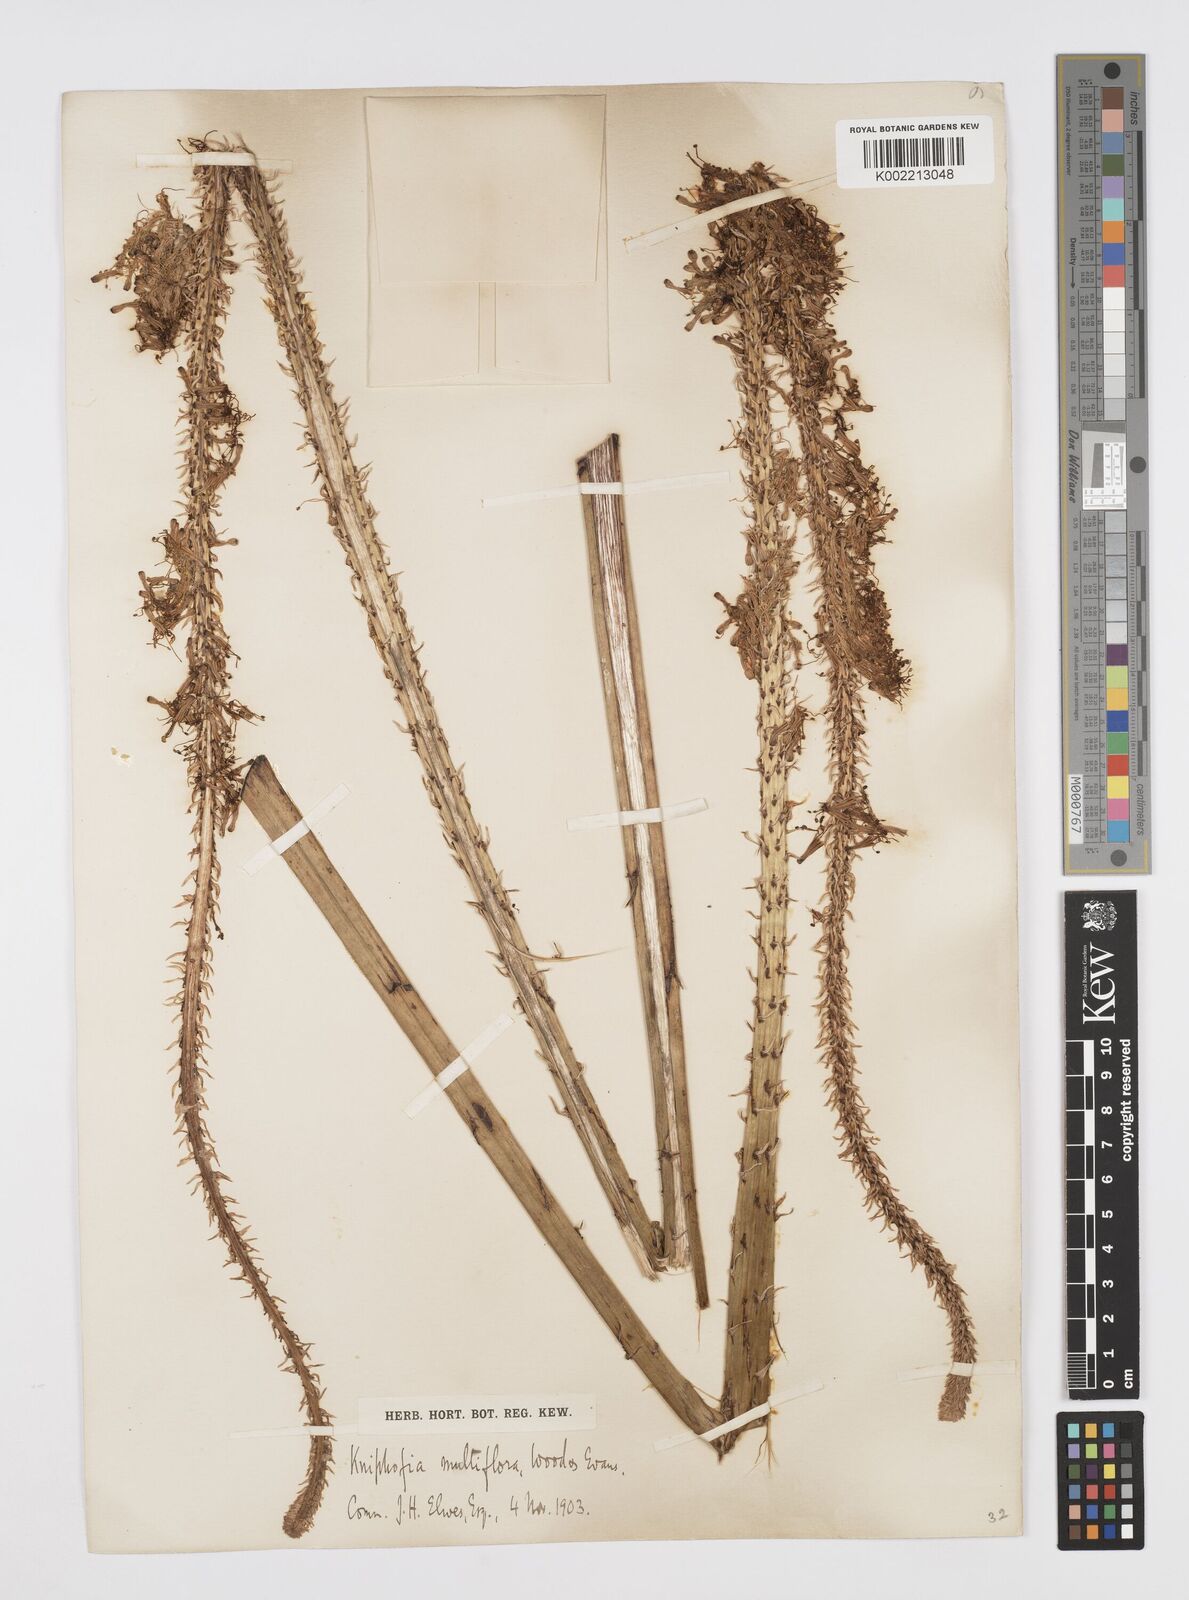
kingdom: Plantae
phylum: Tracheophyta
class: Liliopsida
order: Asparagales
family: Asphodelaceae
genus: Kniphofia
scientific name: Kniphofia multiflora
